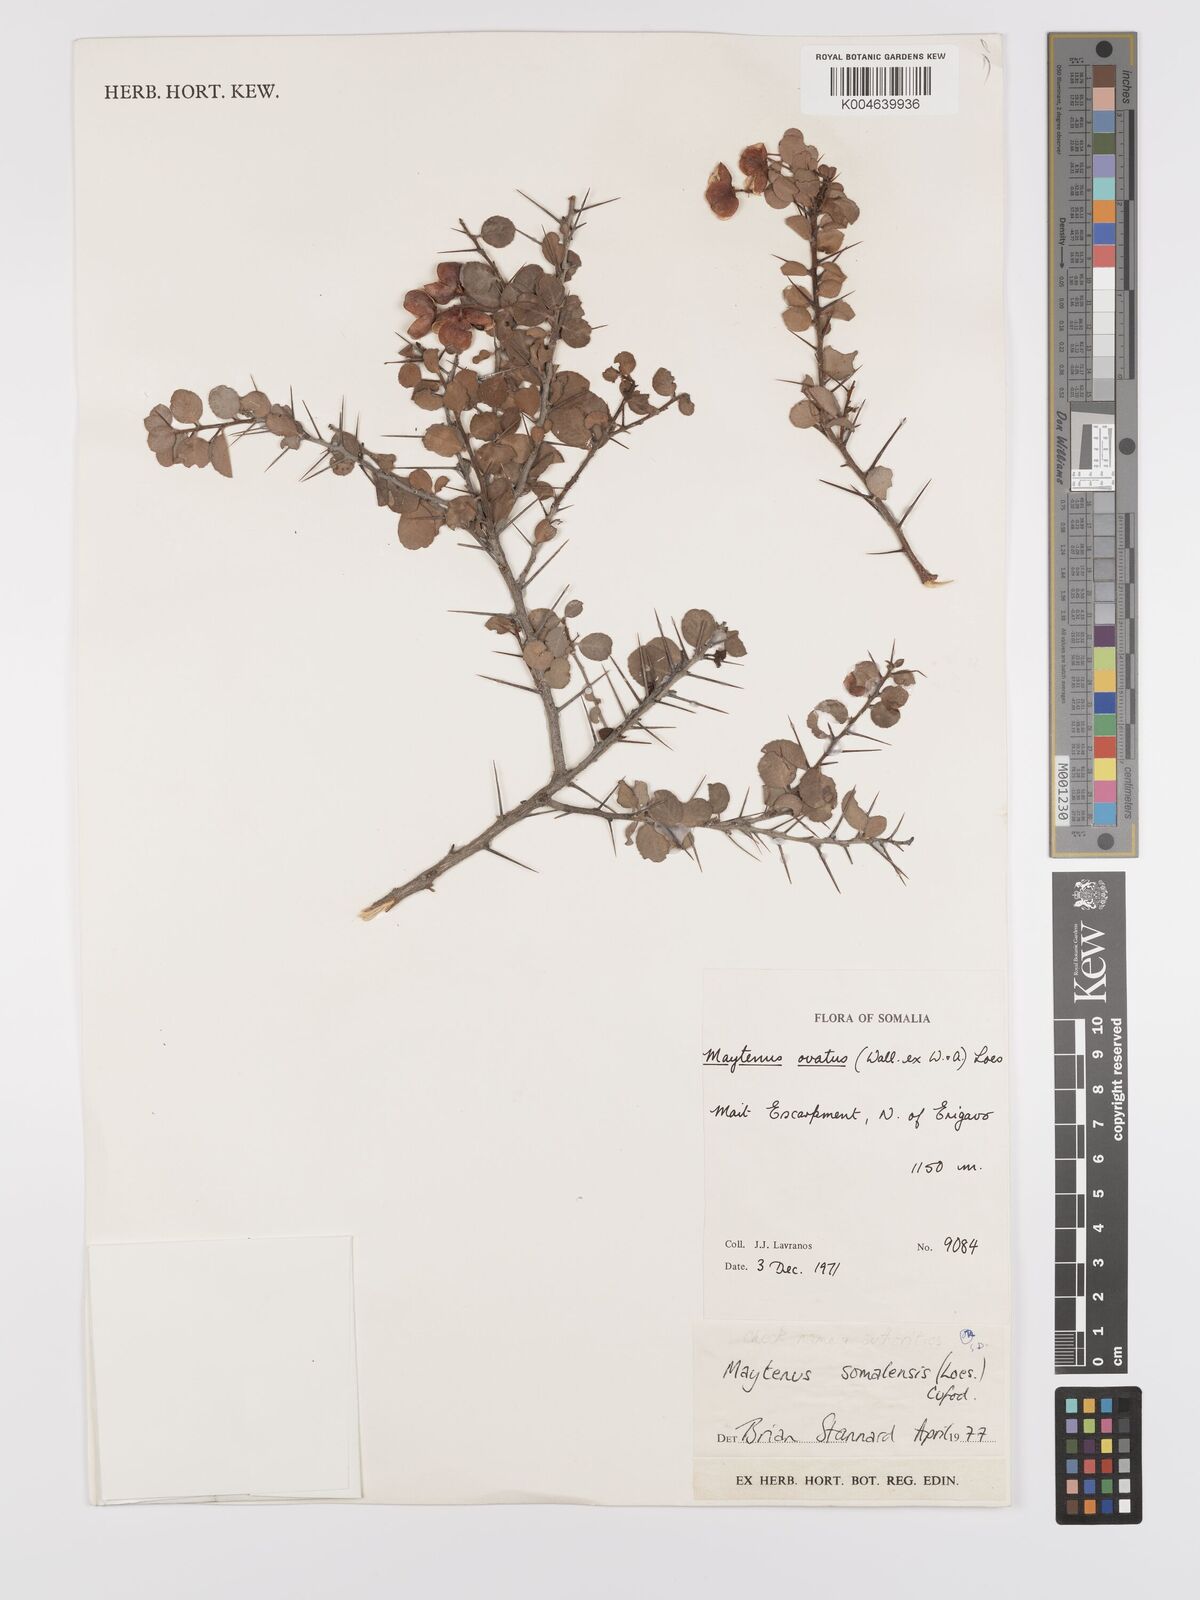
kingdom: Plantae
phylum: Tracheophyta
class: Magnoliopsida
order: Celastrales
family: Celastraceae
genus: Gymnosporia
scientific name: Gymnosporia somalensis
